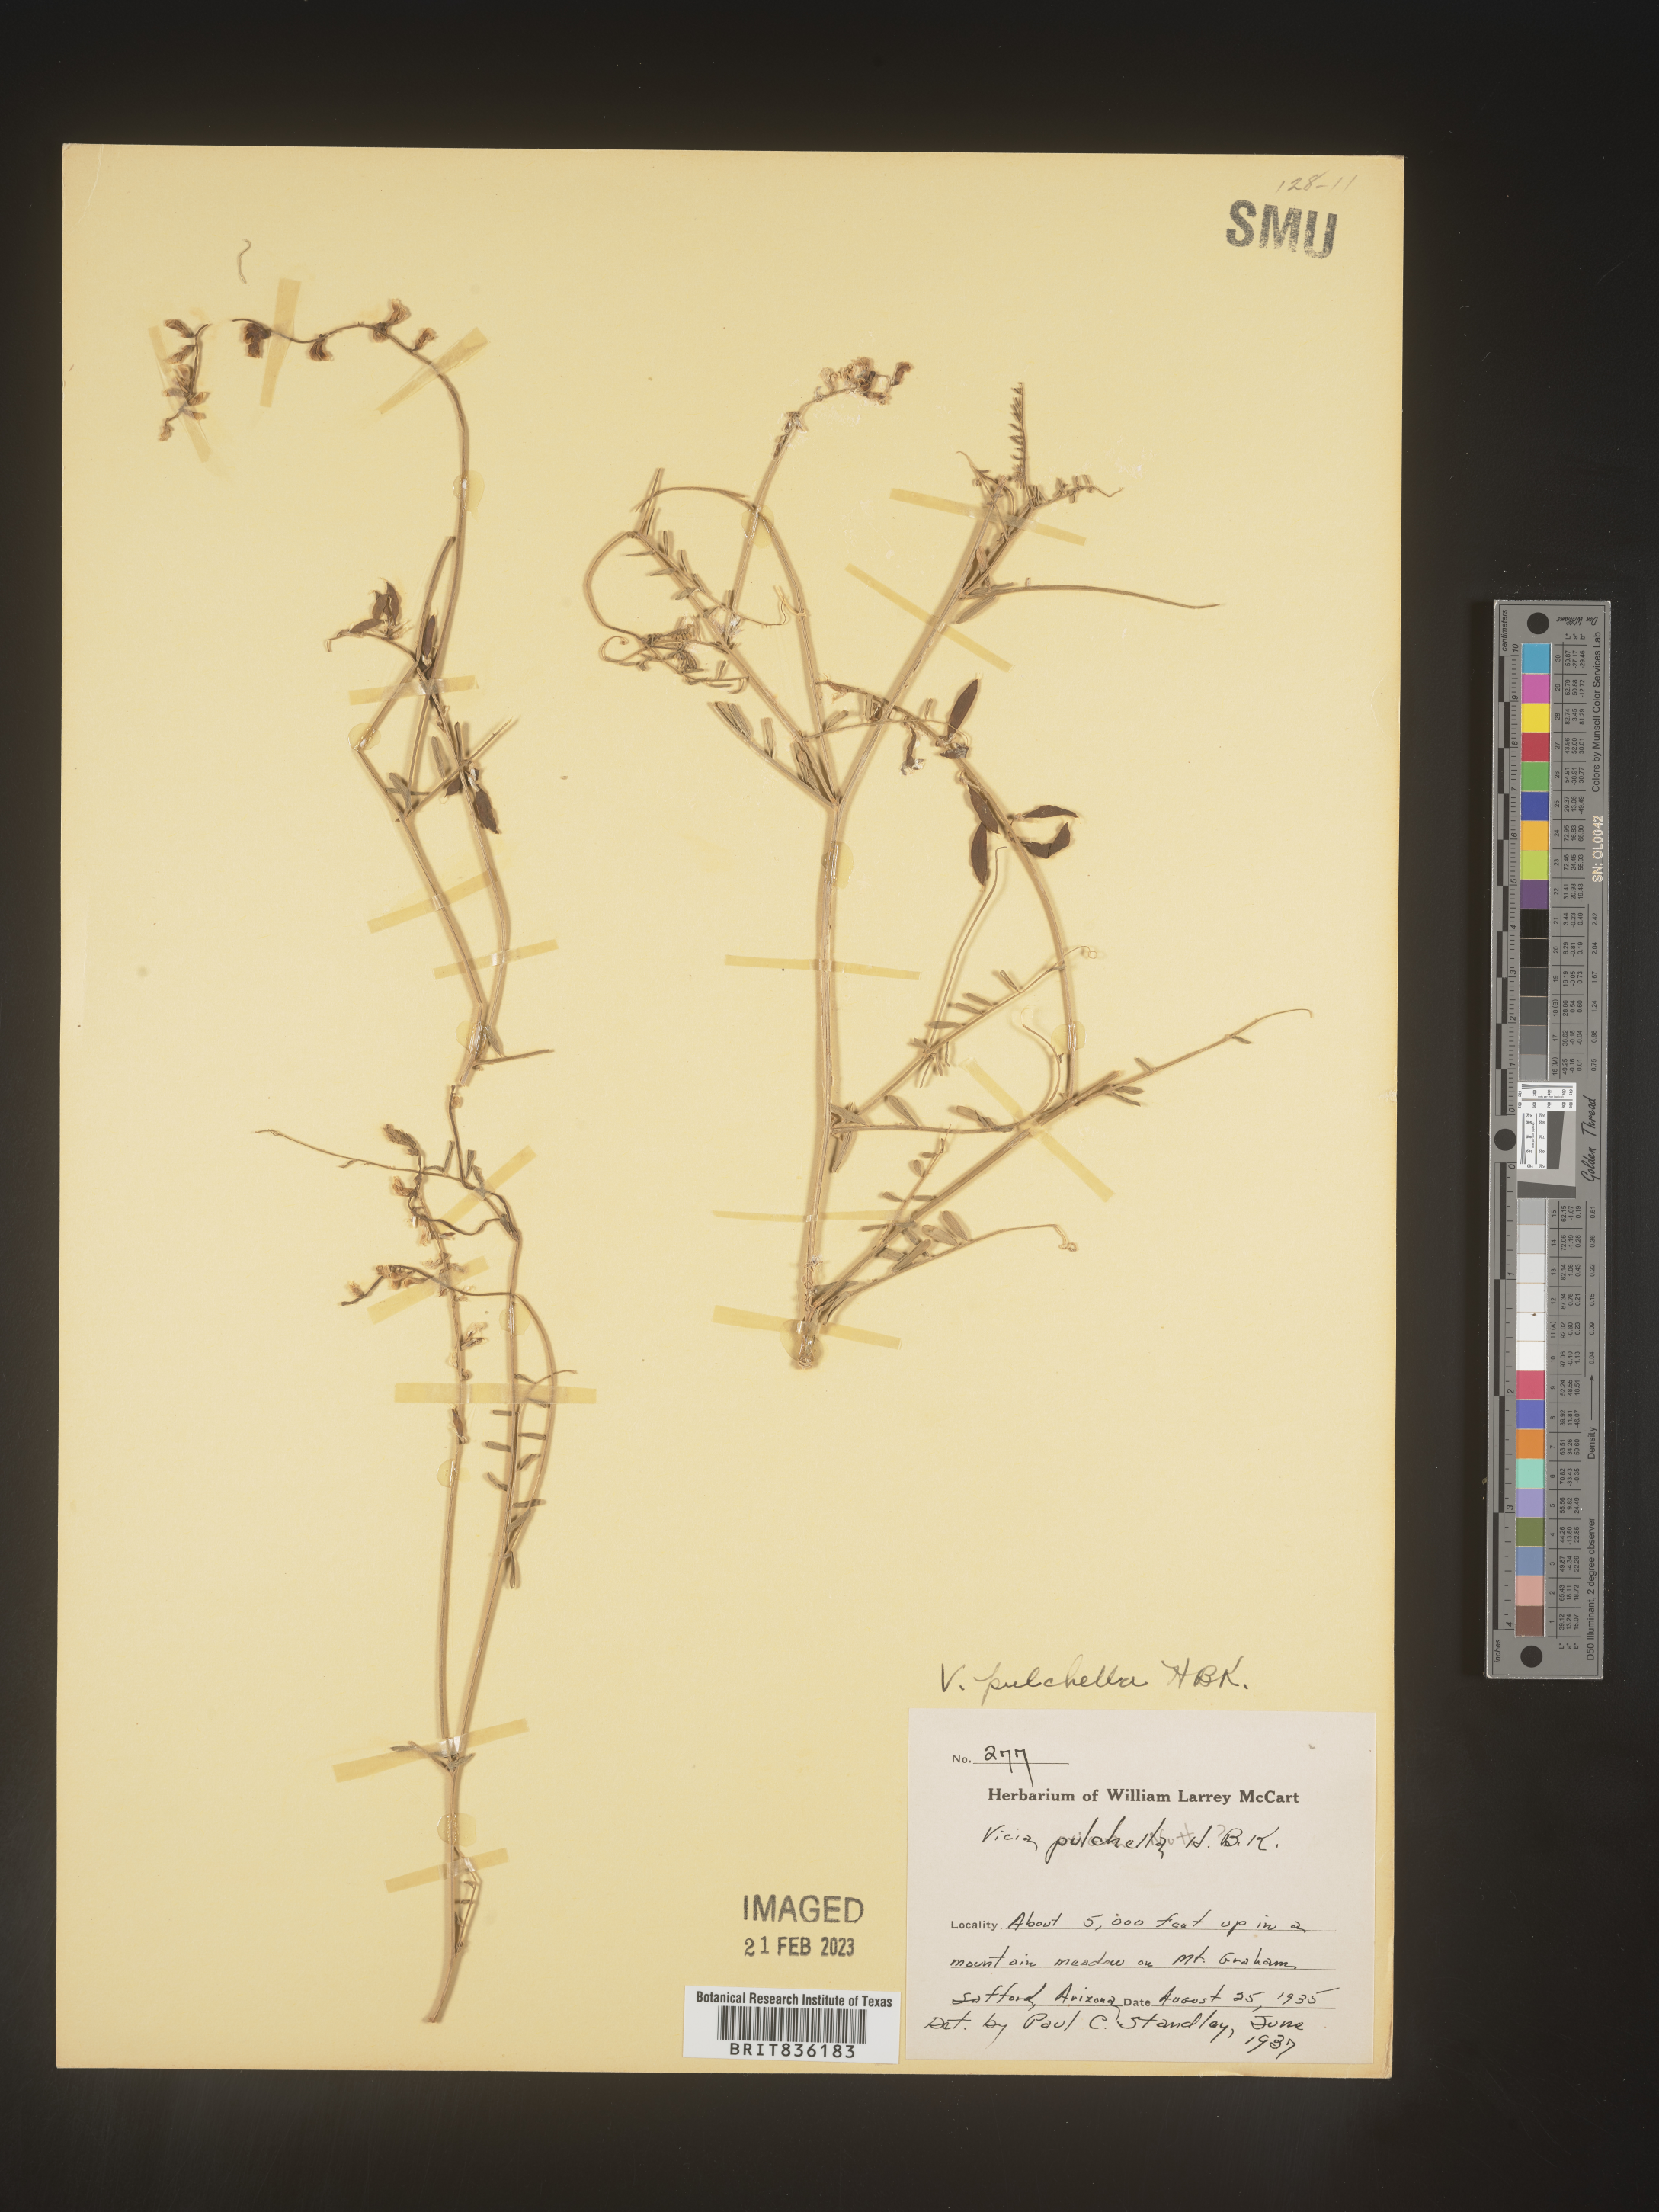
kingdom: Plantae
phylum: Tracheophyta
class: Magnoliopsida
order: Fabales
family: Fabaceae
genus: Vicia
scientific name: Vicia
